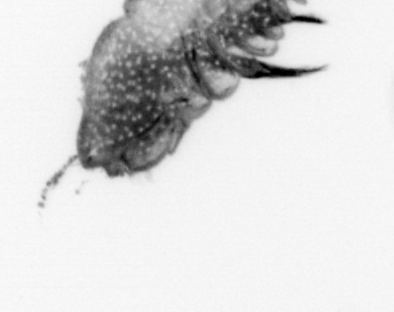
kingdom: Animalia
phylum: Annelida
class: Polychaeta
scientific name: Polychaeta
